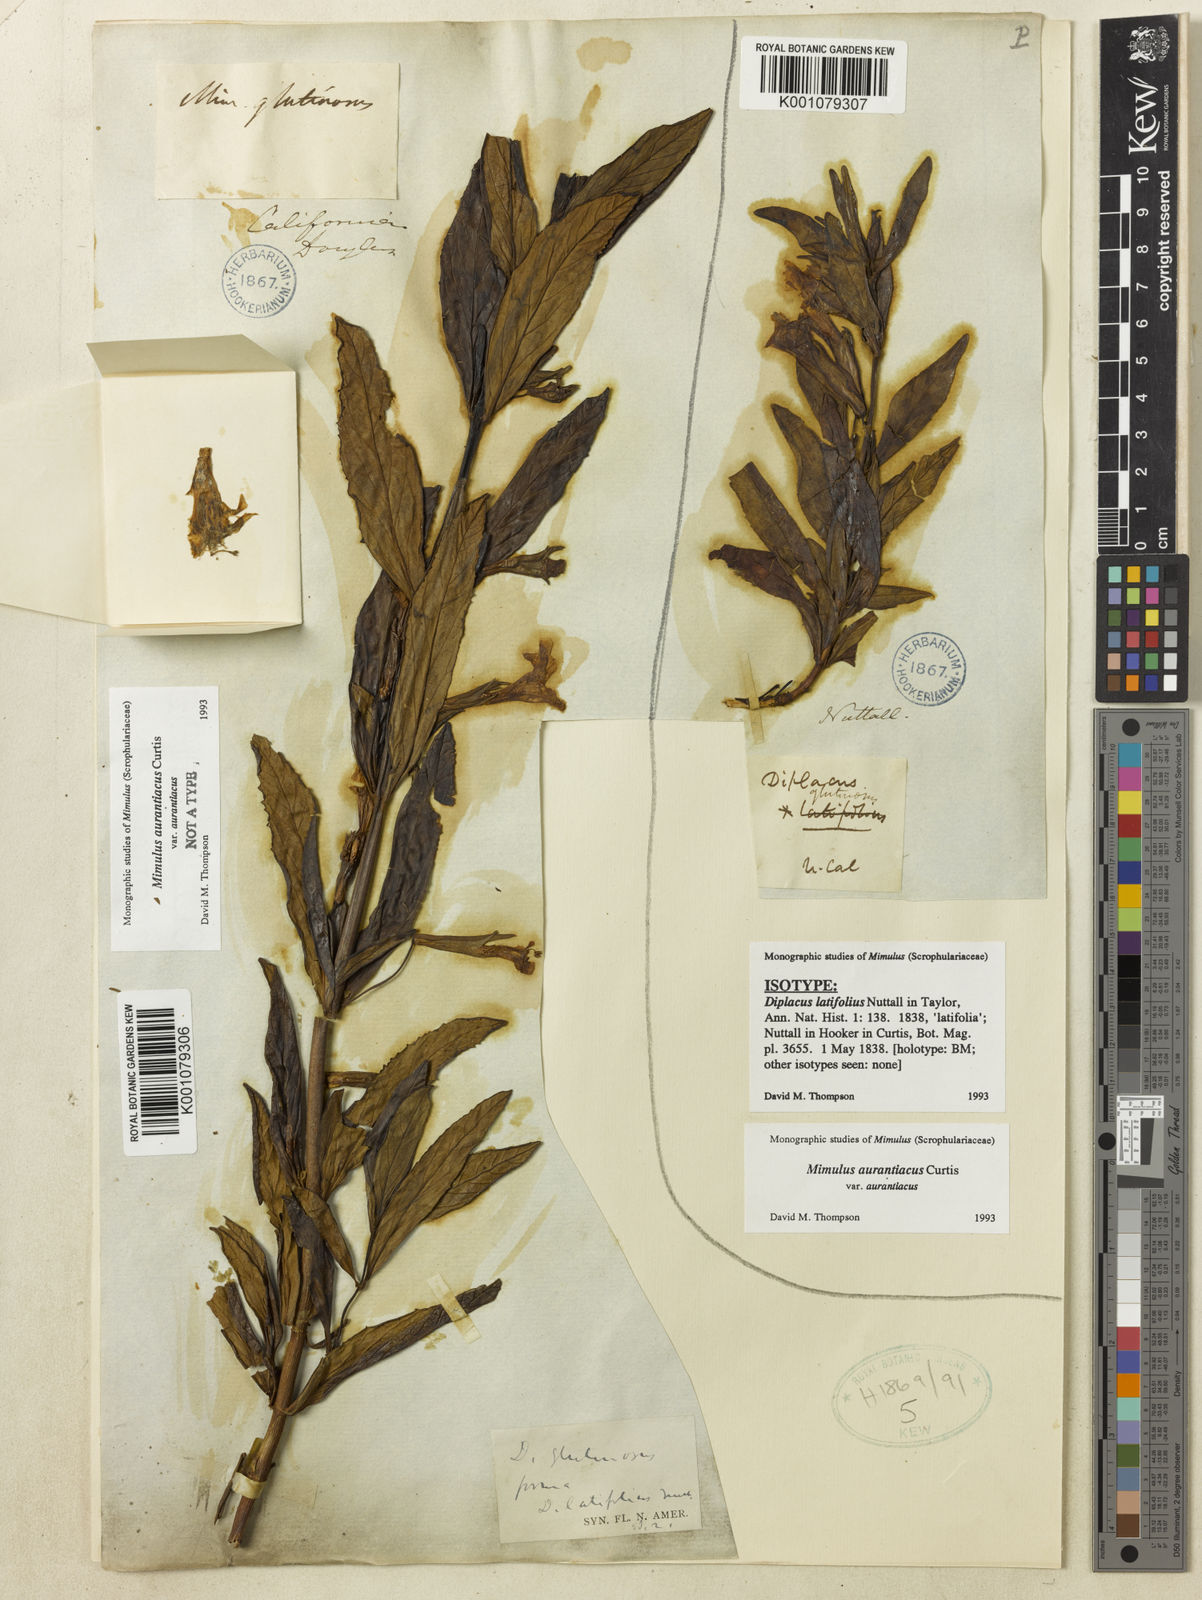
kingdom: Plantae
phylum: Tracheophyta
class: Magnoliopsida
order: Lamiales
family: Phrymaceae
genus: Mimulus
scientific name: Mimulus
